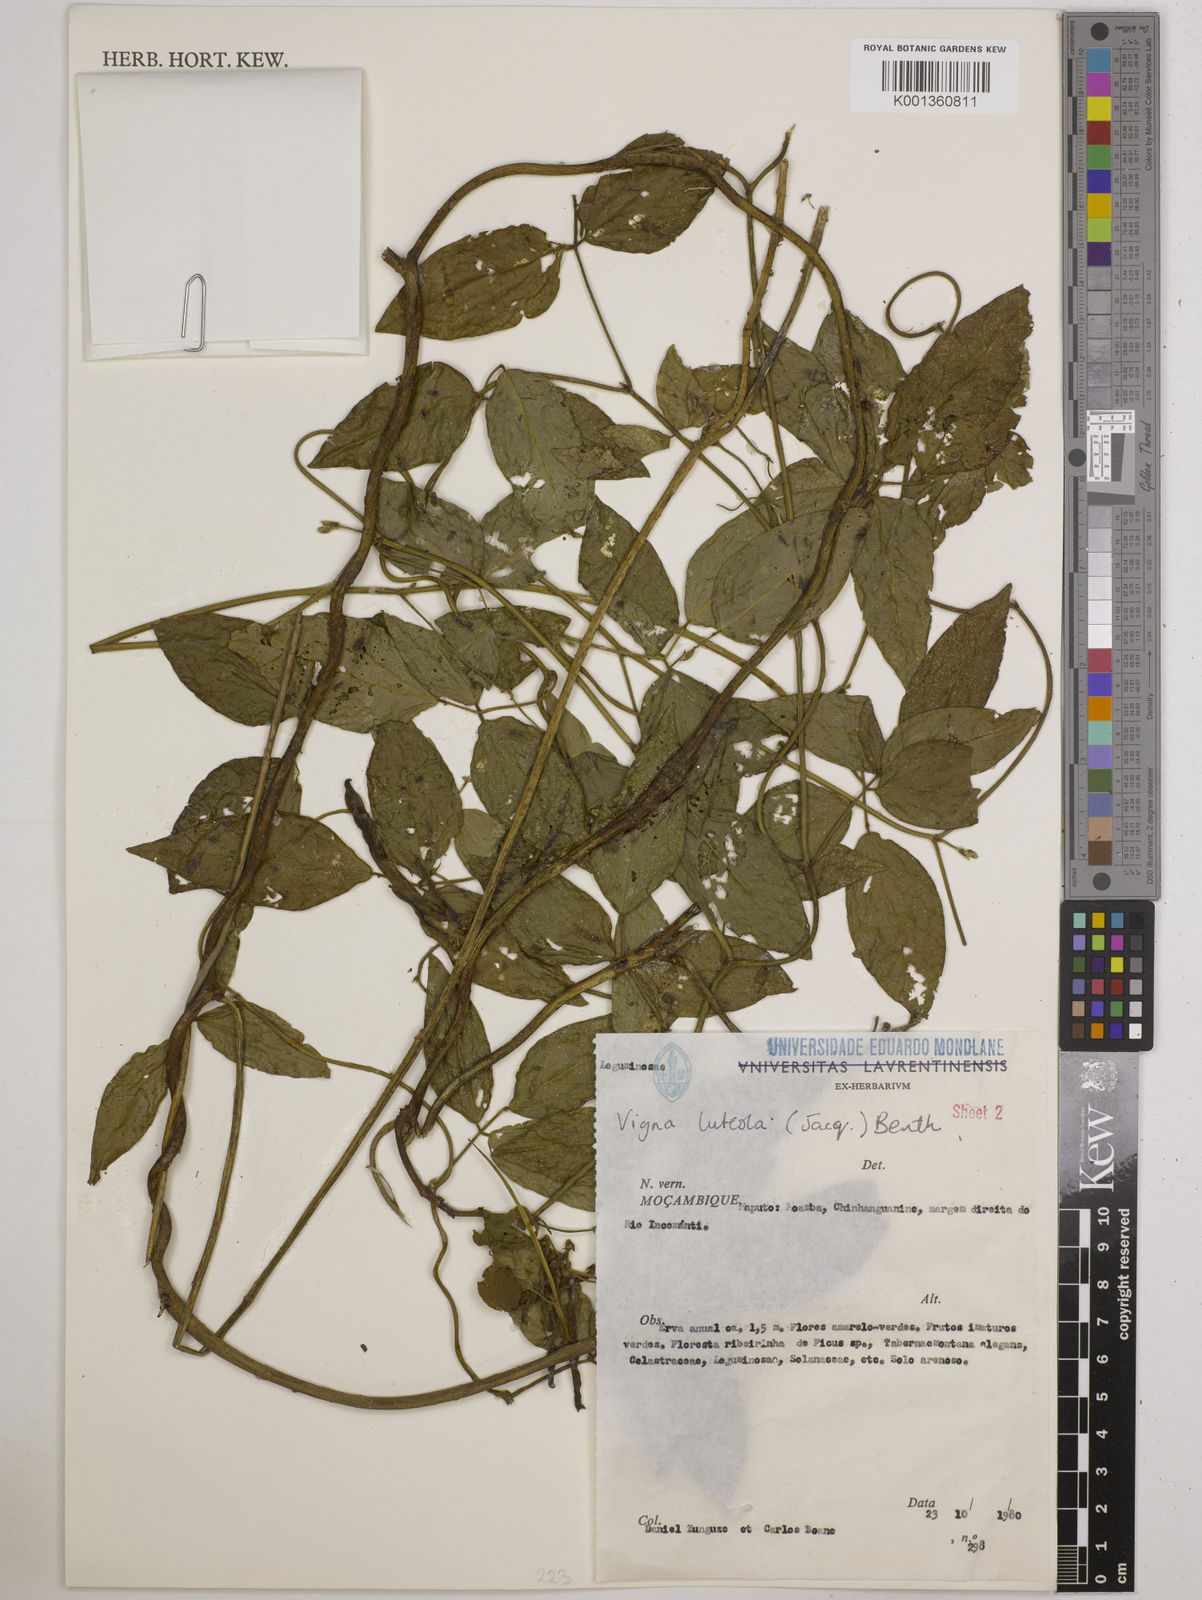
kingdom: Plantae
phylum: Tracheophyta
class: Magnoliopsida
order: Fabales
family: Fabaceae
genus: Vigna
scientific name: Vigna luteola
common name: Hairypod cowpea
